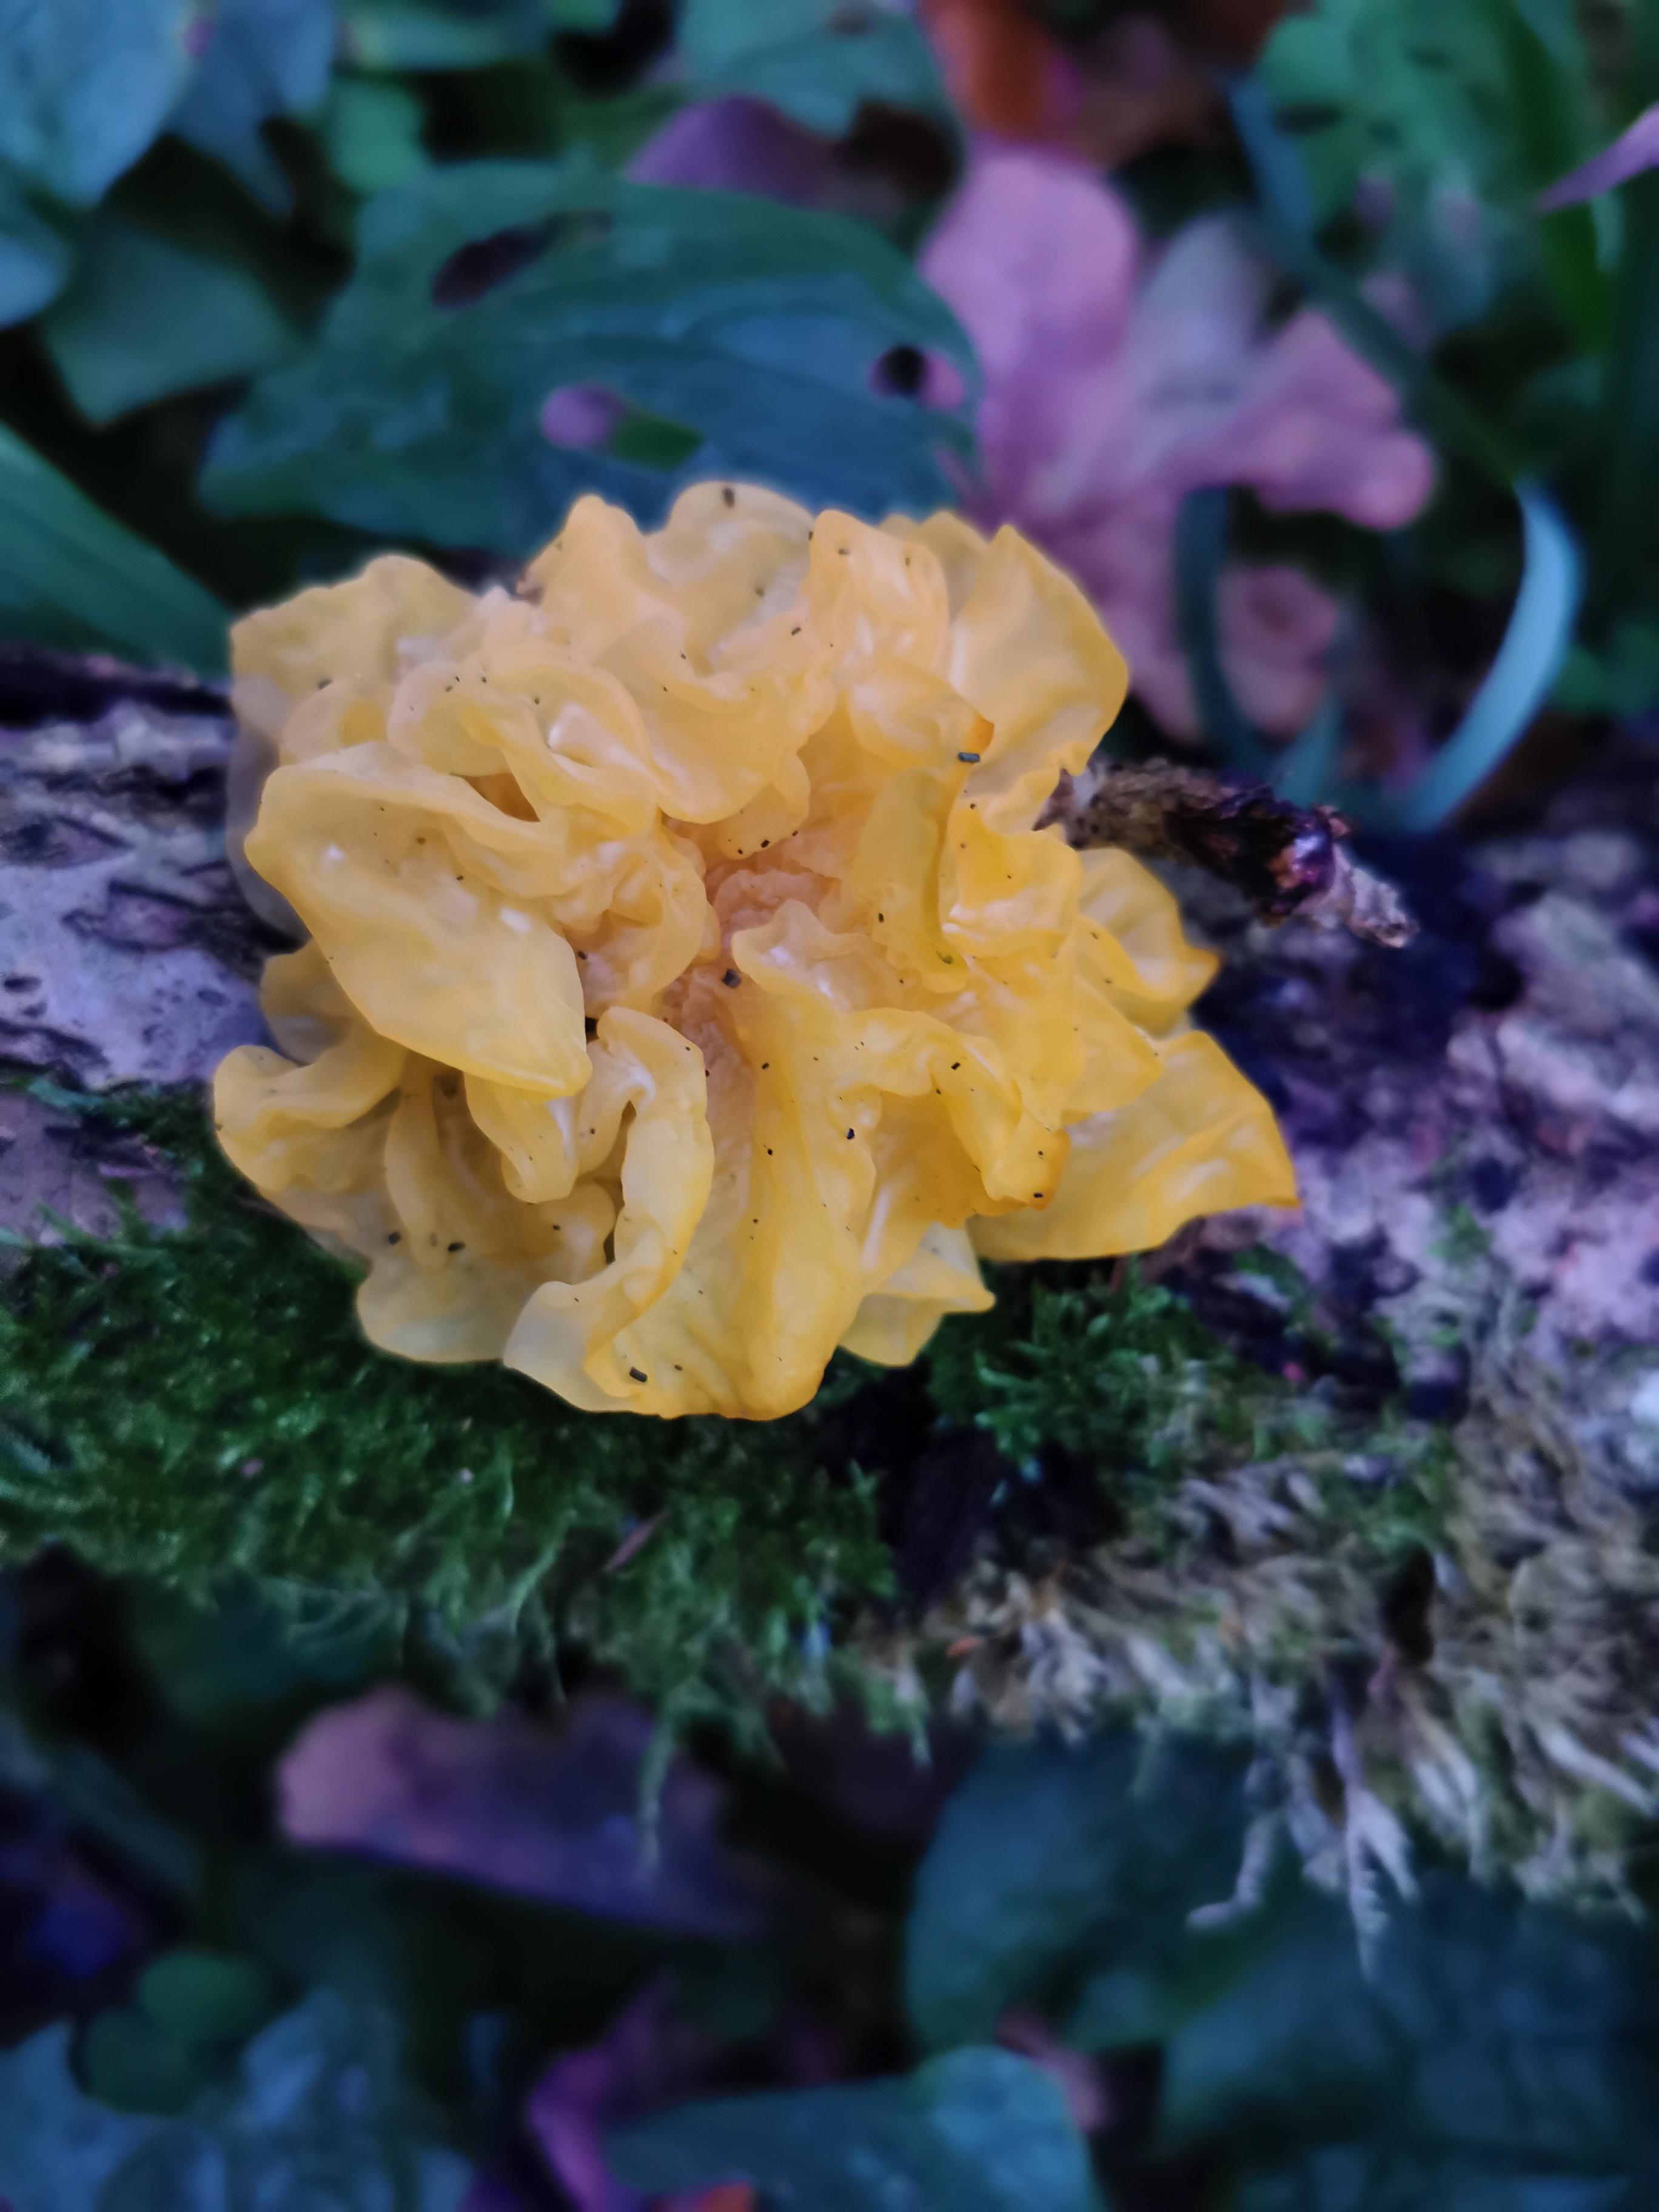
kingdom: Fungi
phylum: Basidiomycota
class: Tremellomycetes
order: Tremellales
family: Tremellaceae
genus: Tremella
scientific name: Tremella mesenterica
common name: gul bævresvamp
